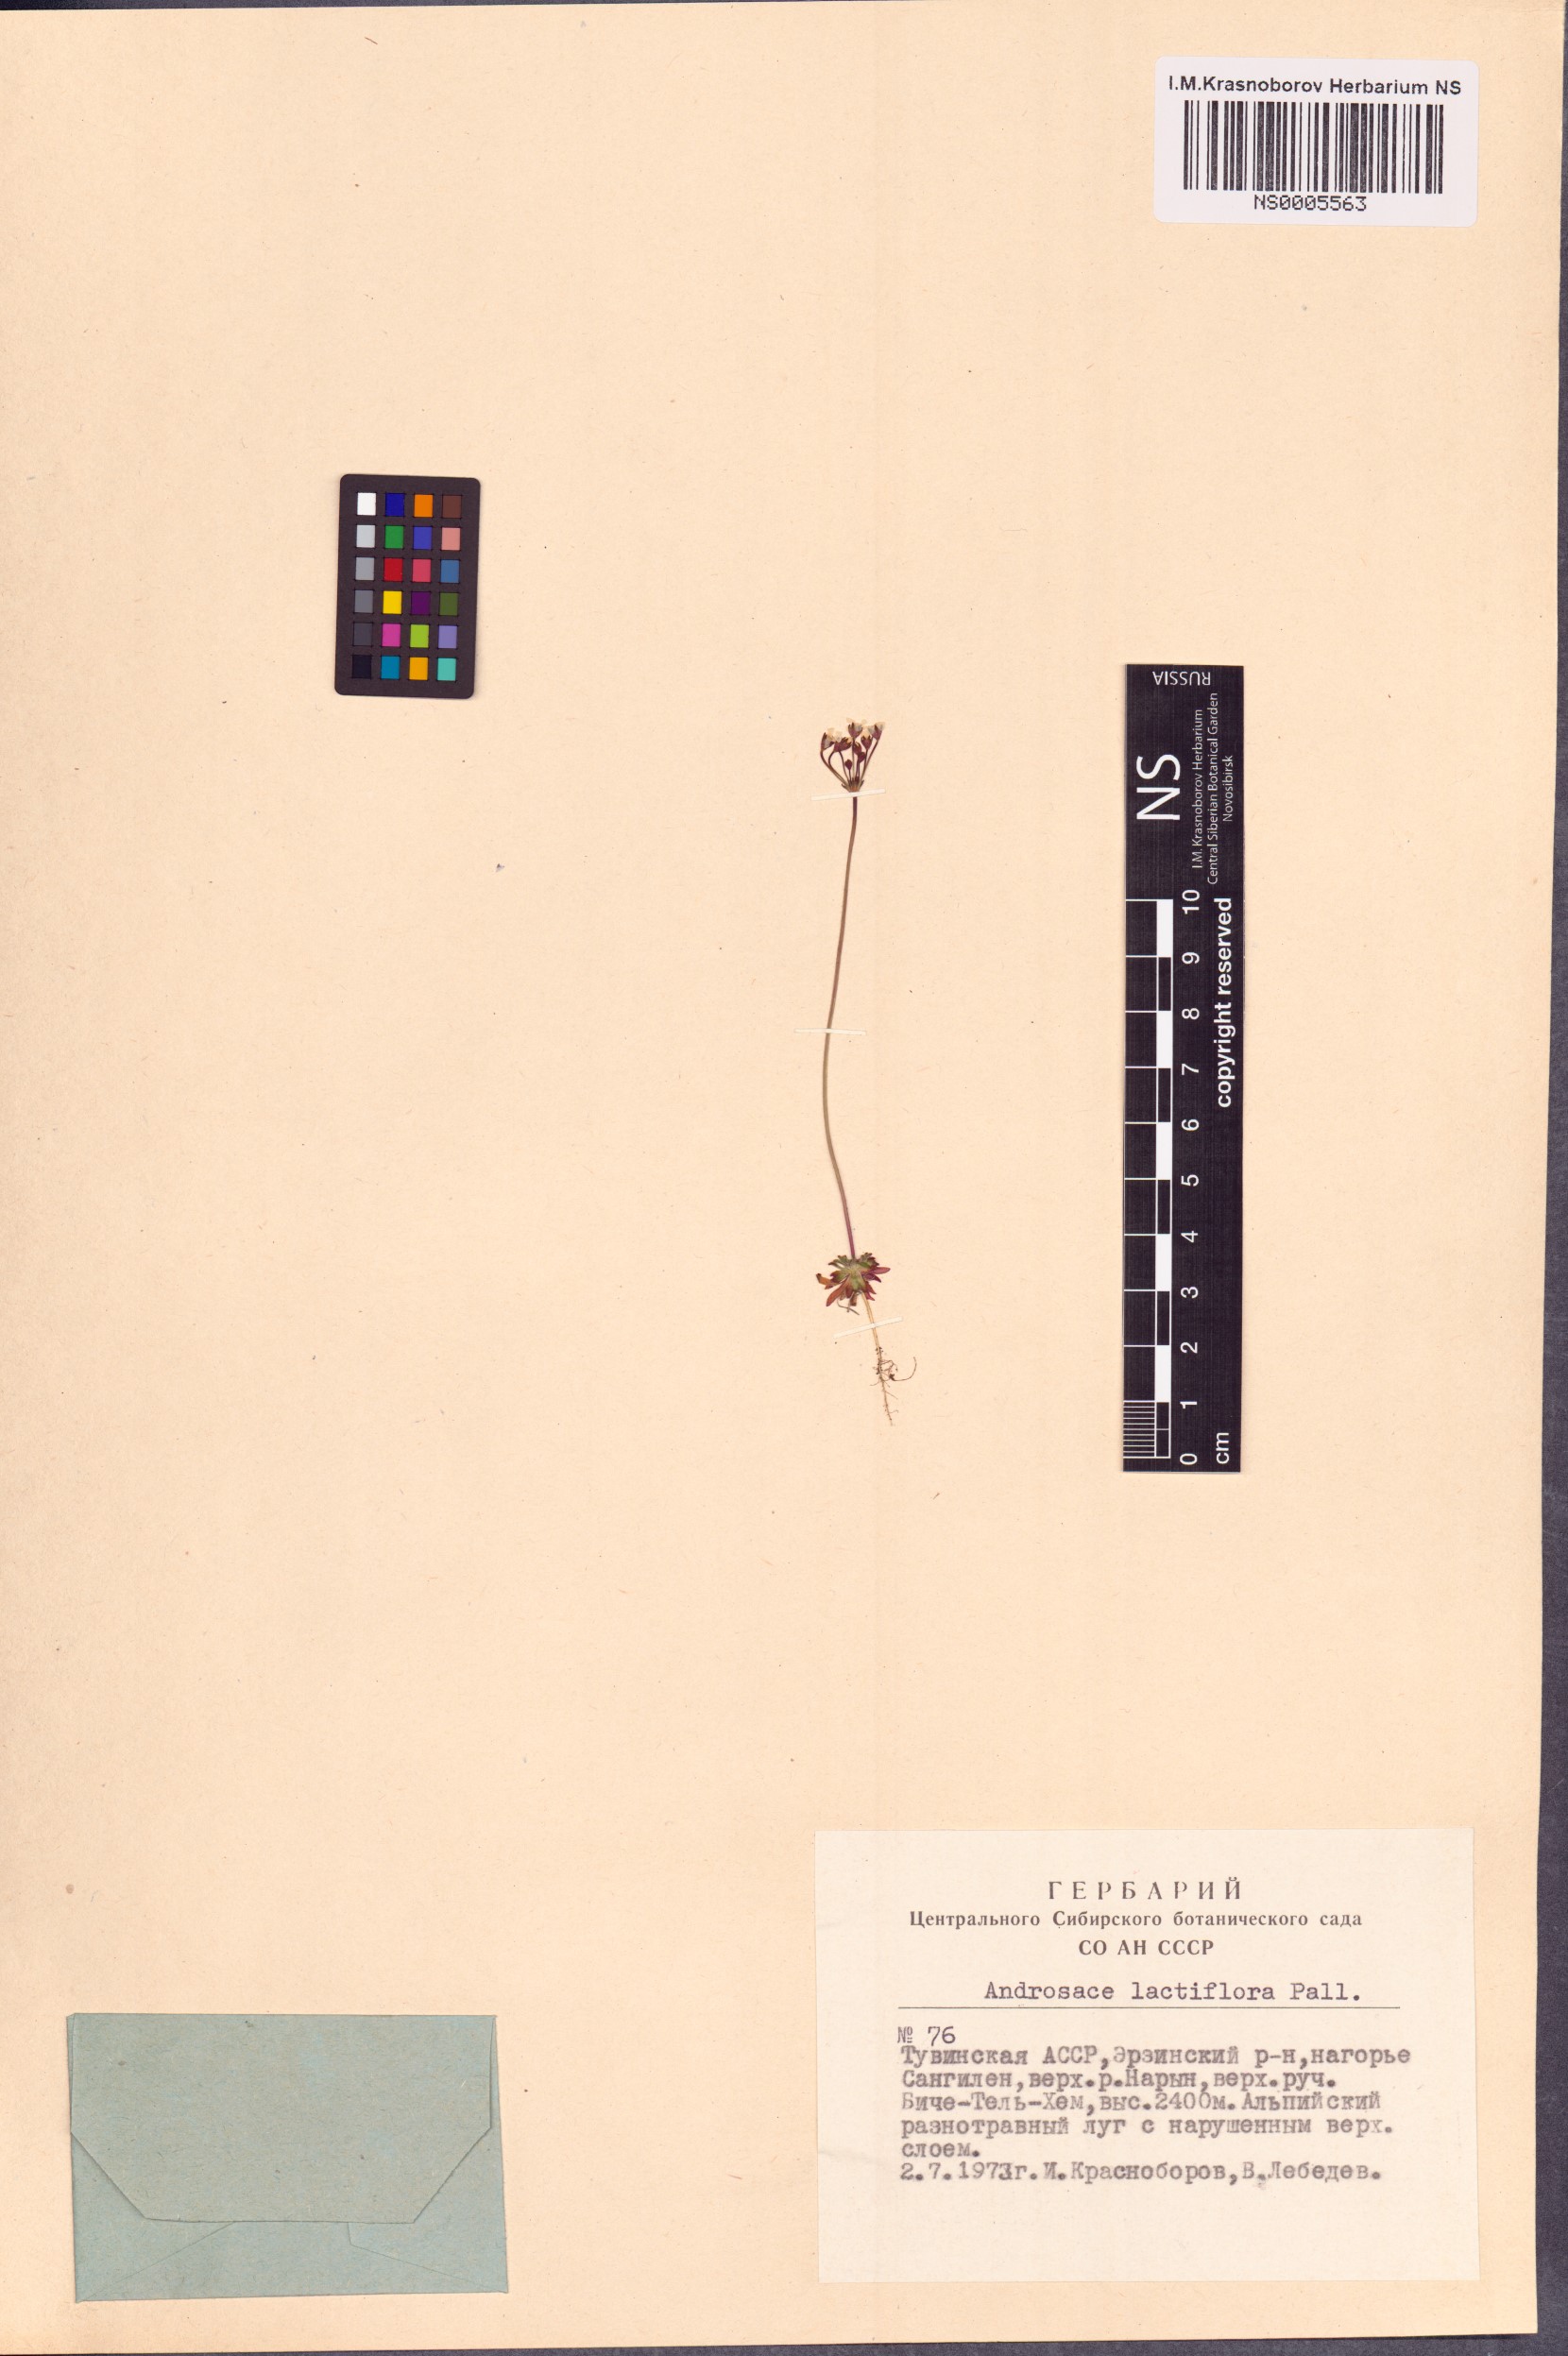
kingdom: Plantae
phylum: Tracheophyta
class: Magnoliopsida
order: Ericales
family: Primulaceae
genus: Androsace
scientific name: Androsace lactiflora
